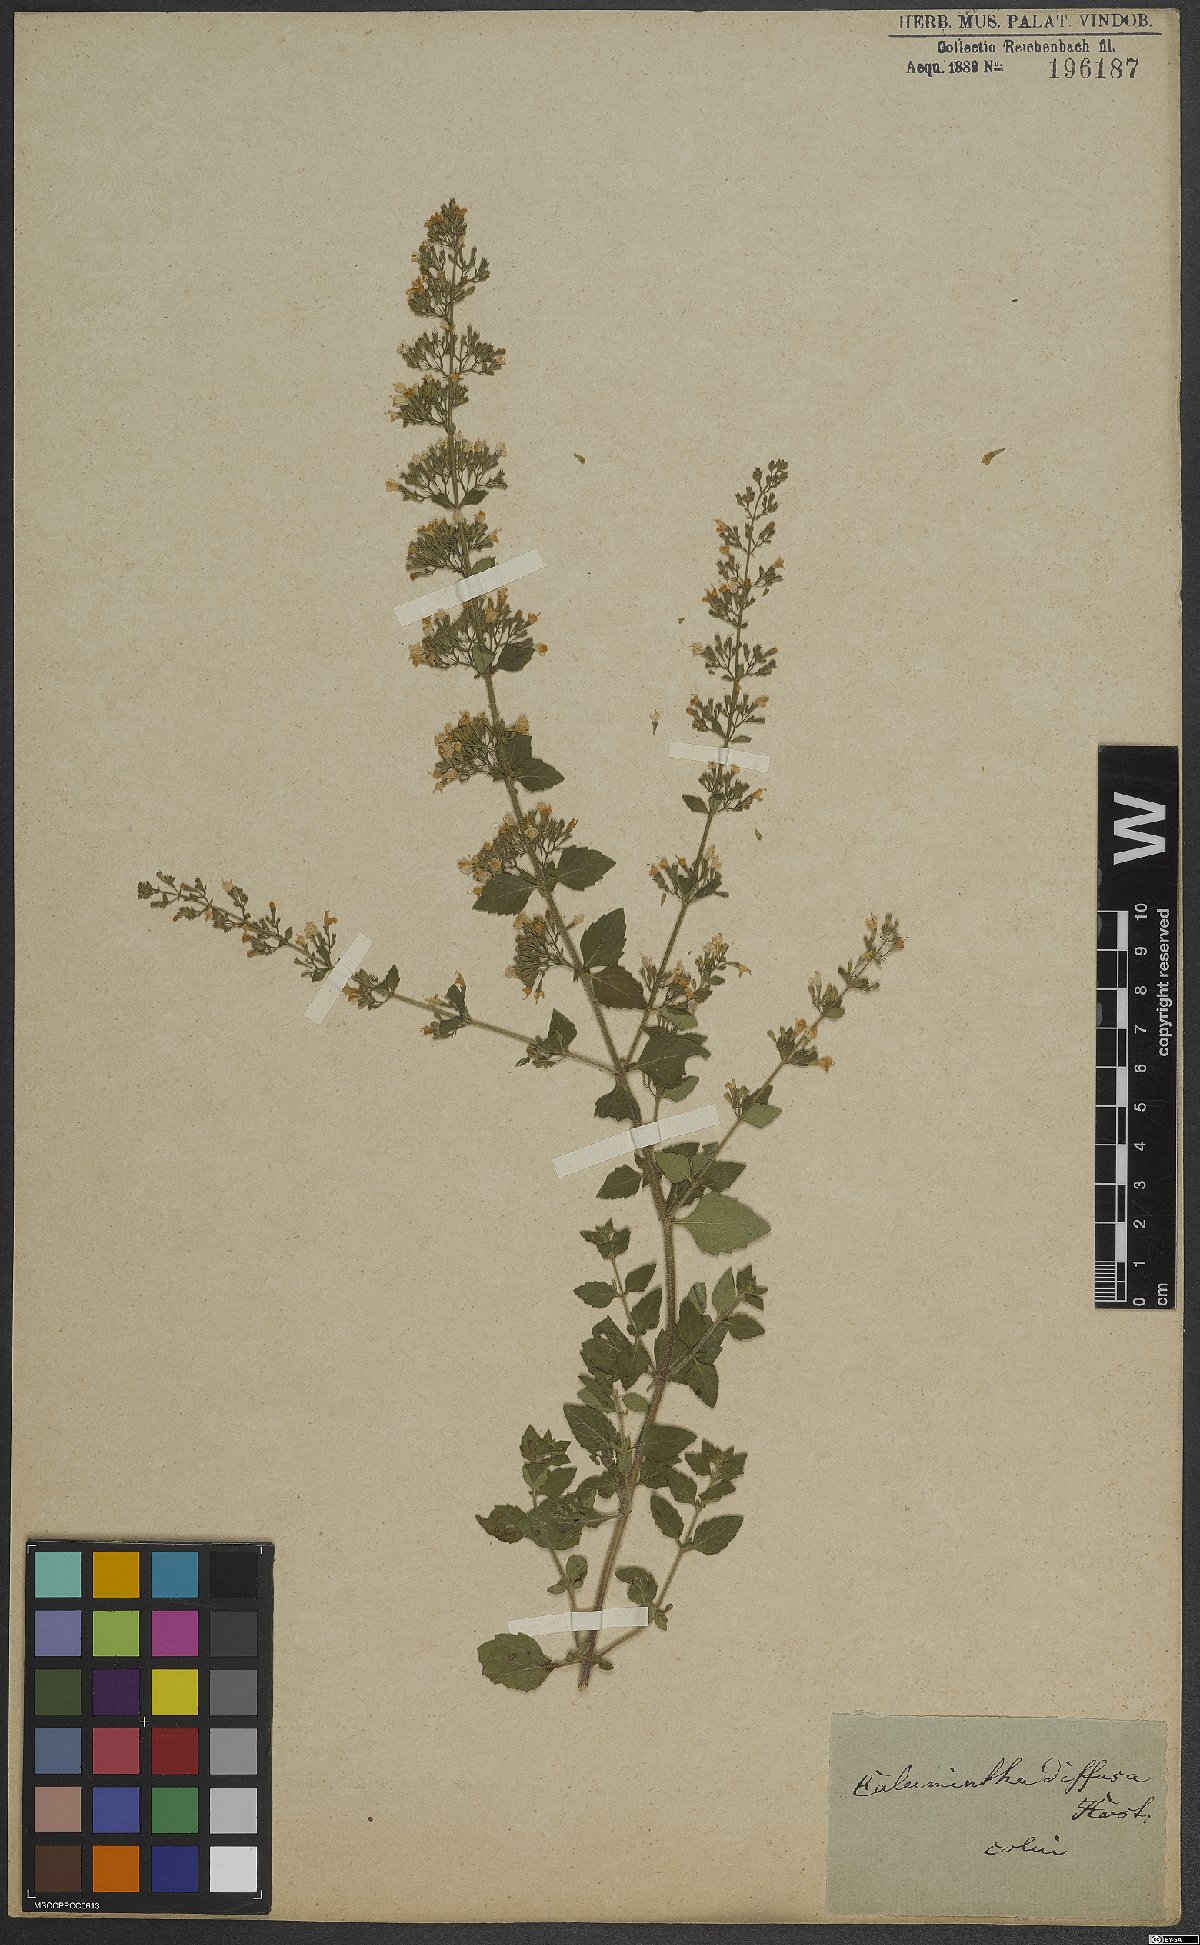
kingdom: Plantae
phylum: Tracheophyta
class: Magnoliopsida
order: Lamiales
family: Lamiaceae
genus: Calamintha
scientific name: Calamintha
